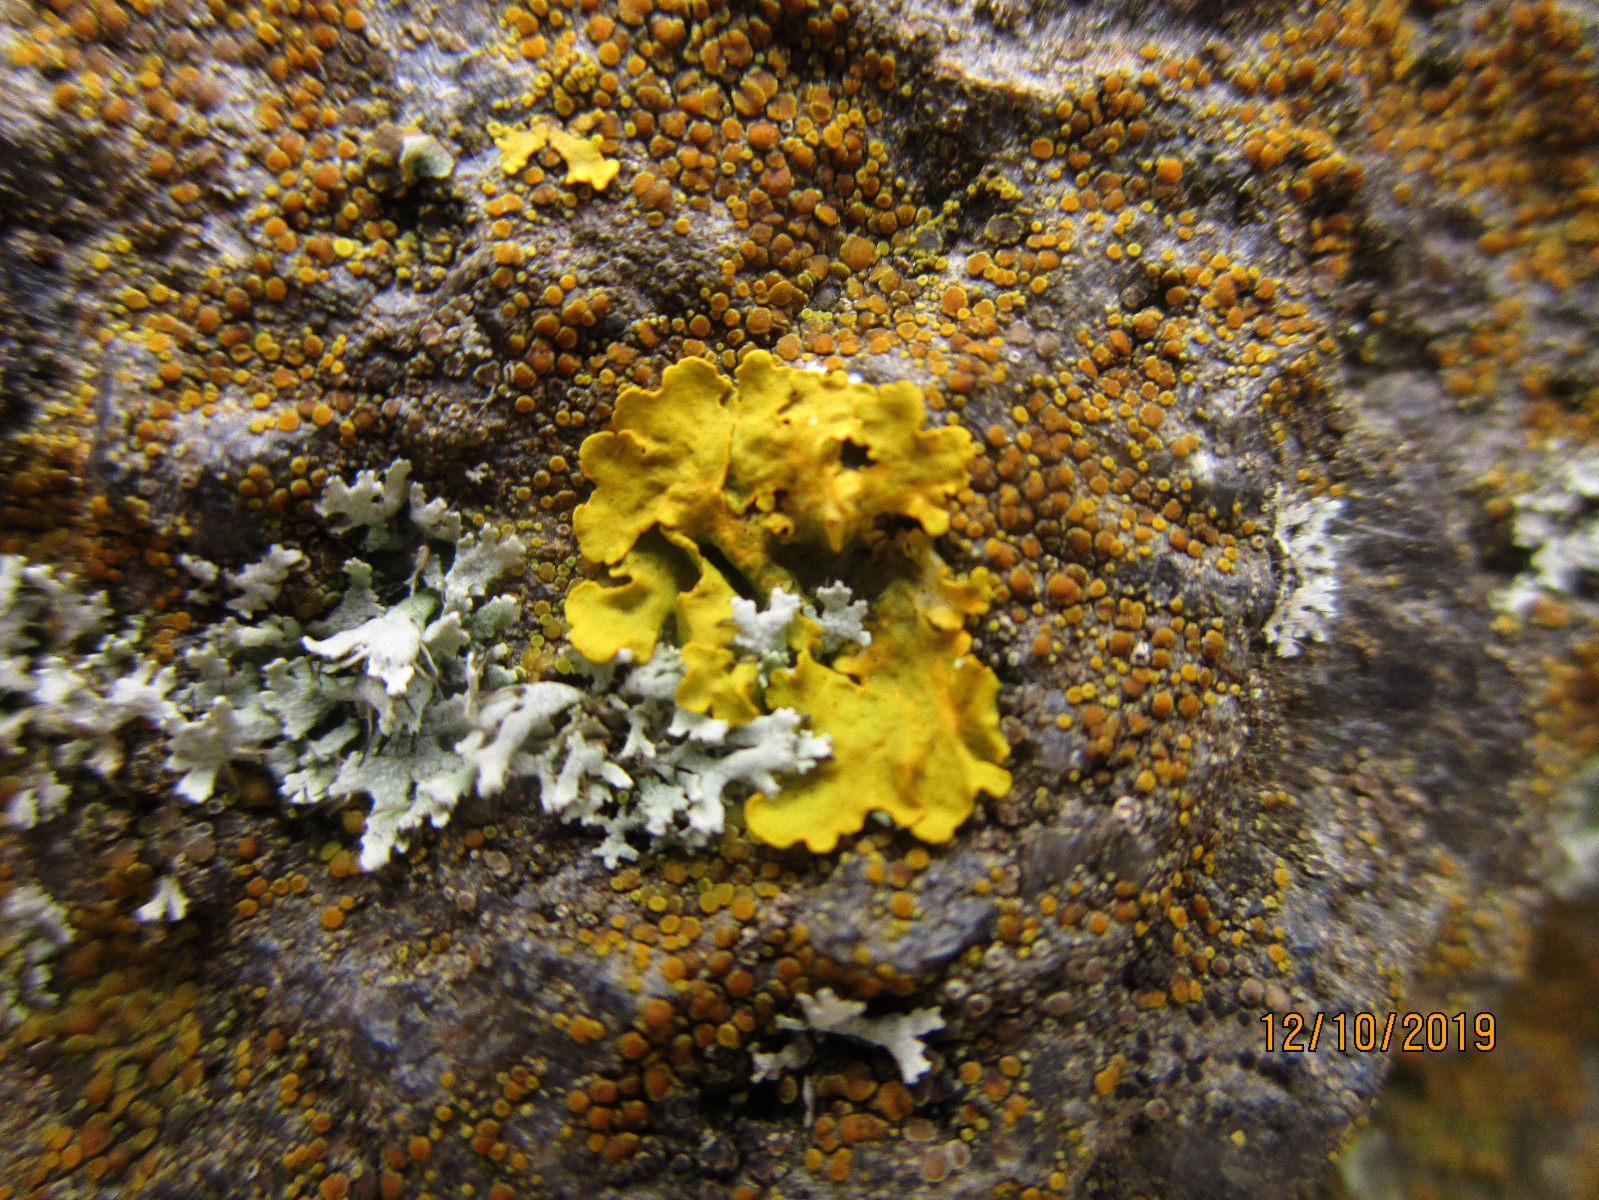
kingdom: Fungi
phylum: Ascomycota
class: Lecanoromycetes
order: Caliciales
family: Physciaceae
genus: Physcia
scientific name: Physcia tenella
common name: spæd rosetlav
